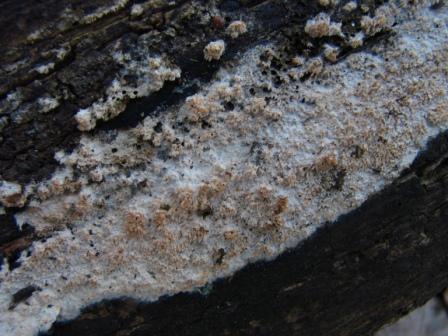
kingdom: Fungi
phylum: Basidiomycota
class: Agaricomycetes
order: Hymenochaetales
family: Schizoporaceae
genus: Schizopora
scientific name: Schizopora paradoxa
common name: hvid tandsvamp
